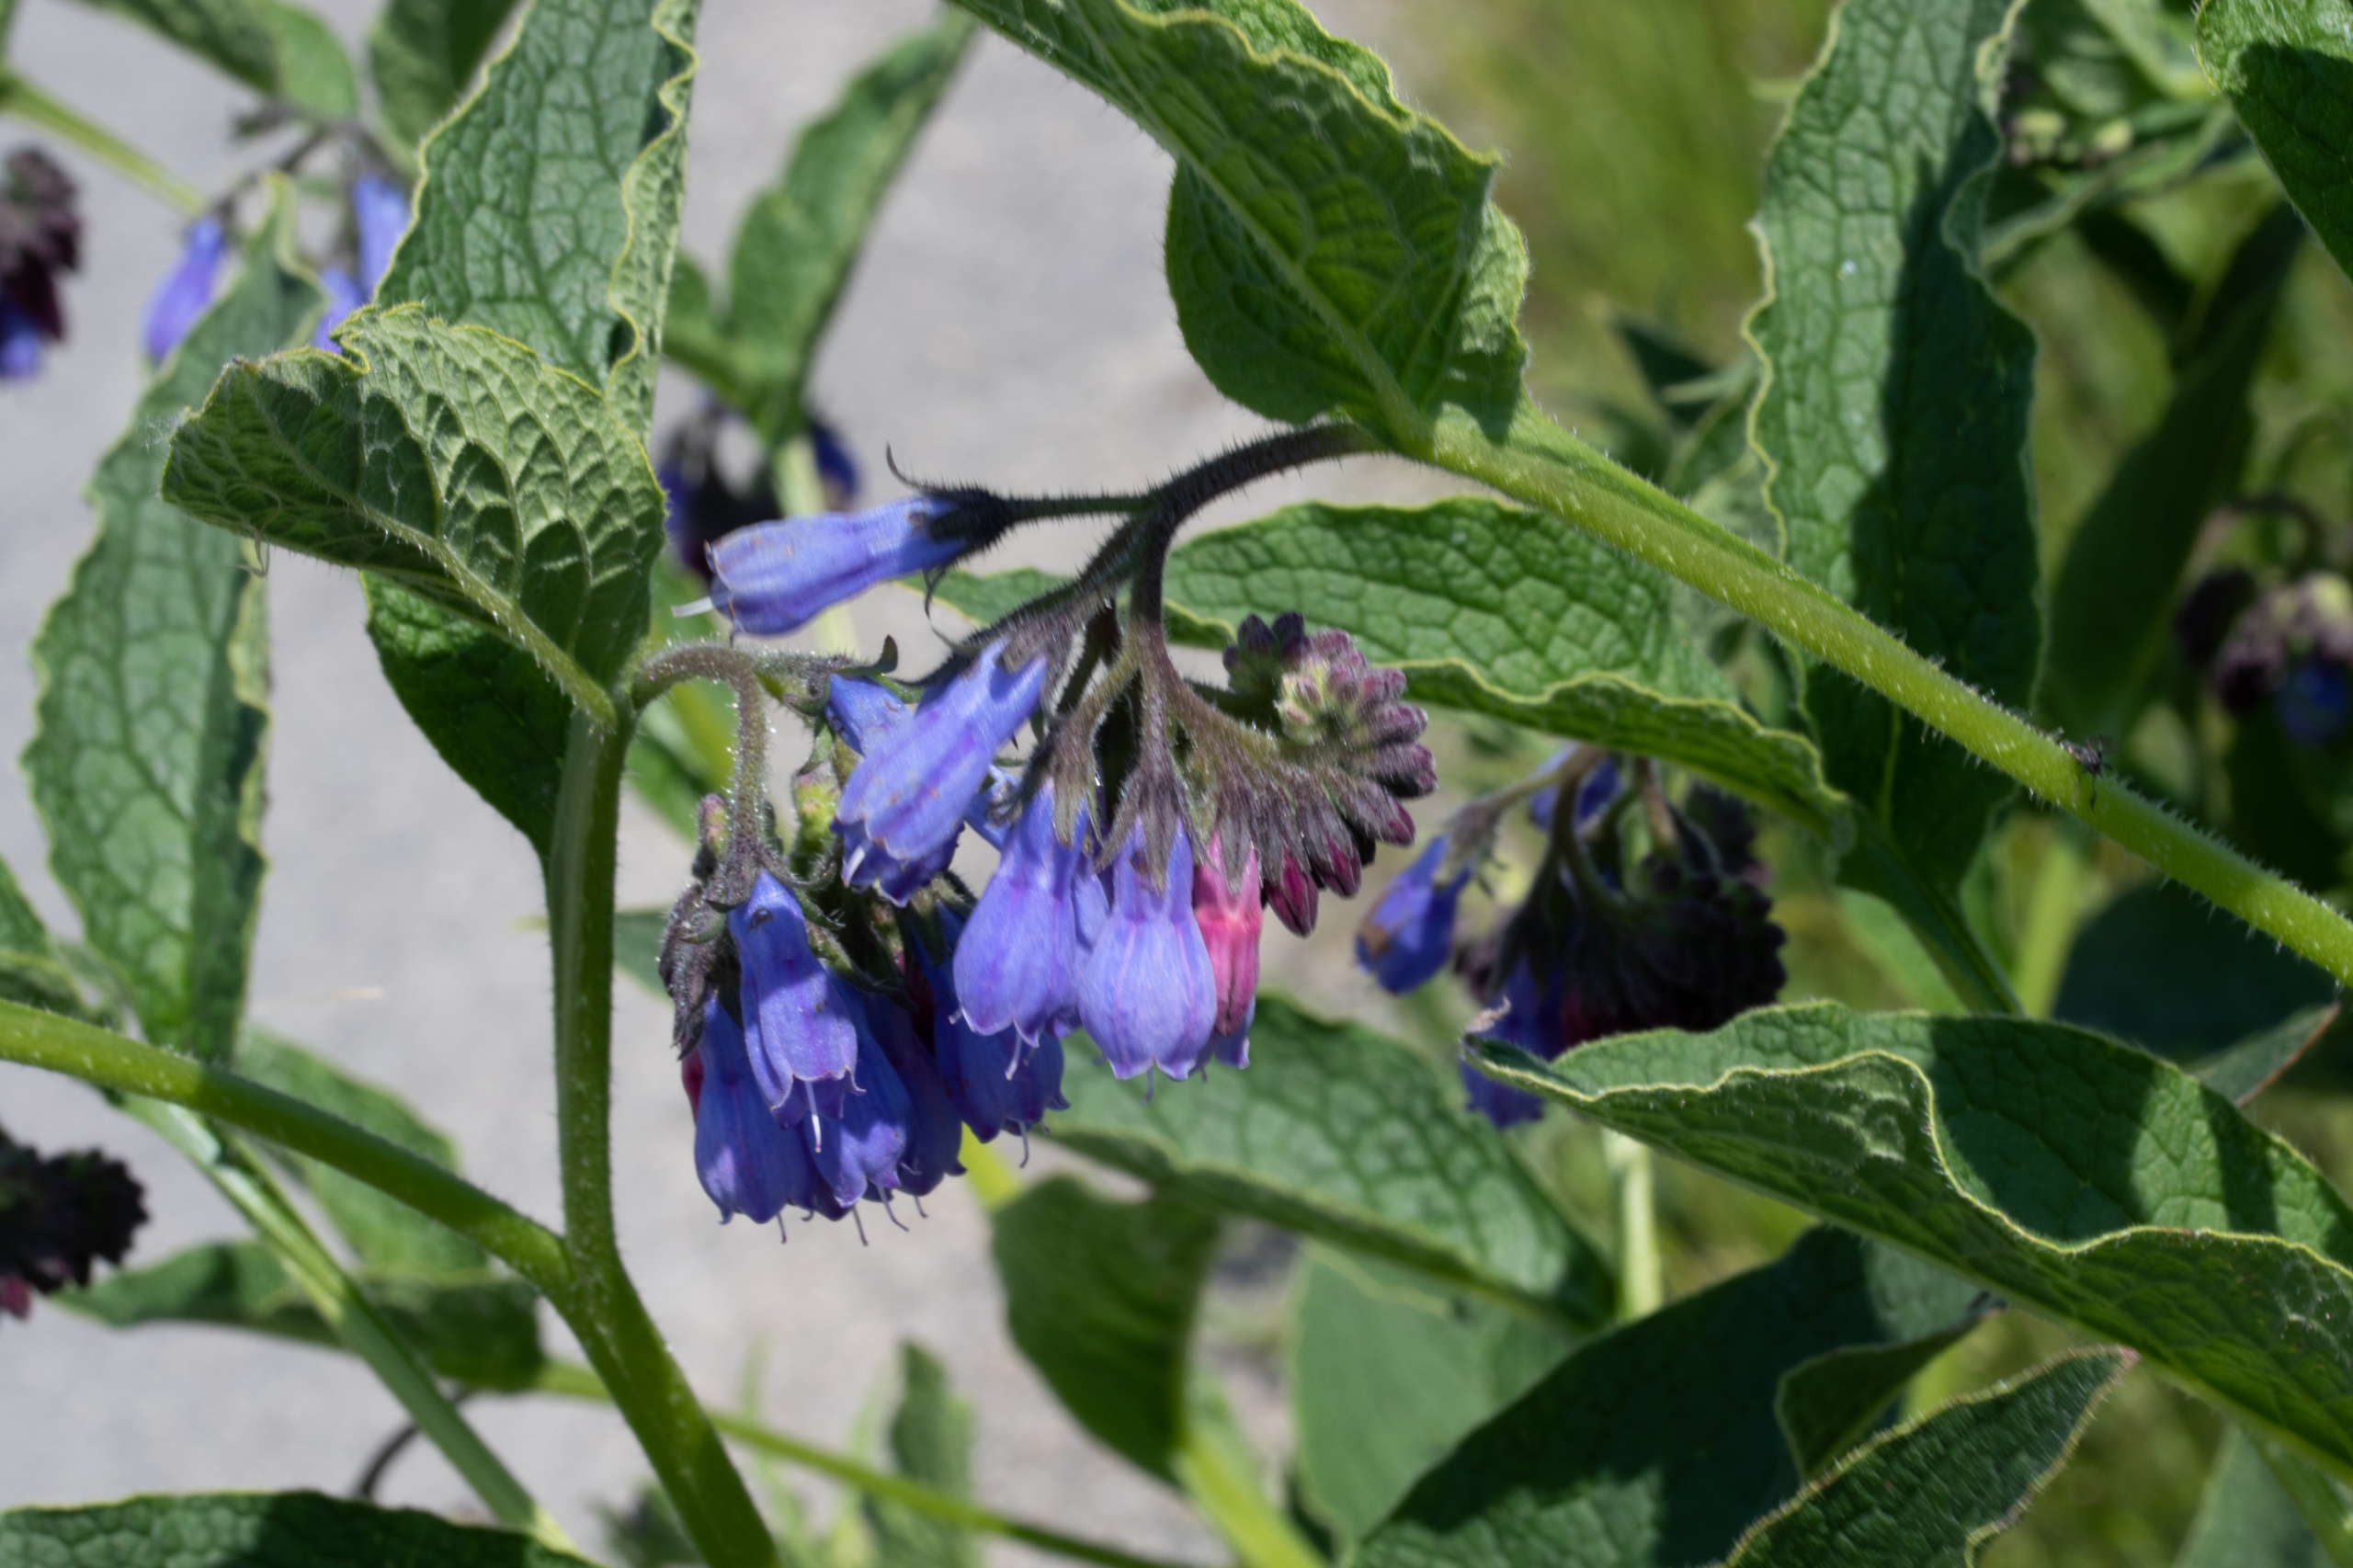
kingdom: Plantae
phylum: Tracheophyta
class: Magnoliopsida
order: Boraginales
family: Boraginaceae
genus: Symphytum
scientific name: Symphytum uplandicum
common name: Foder-kulsukker
